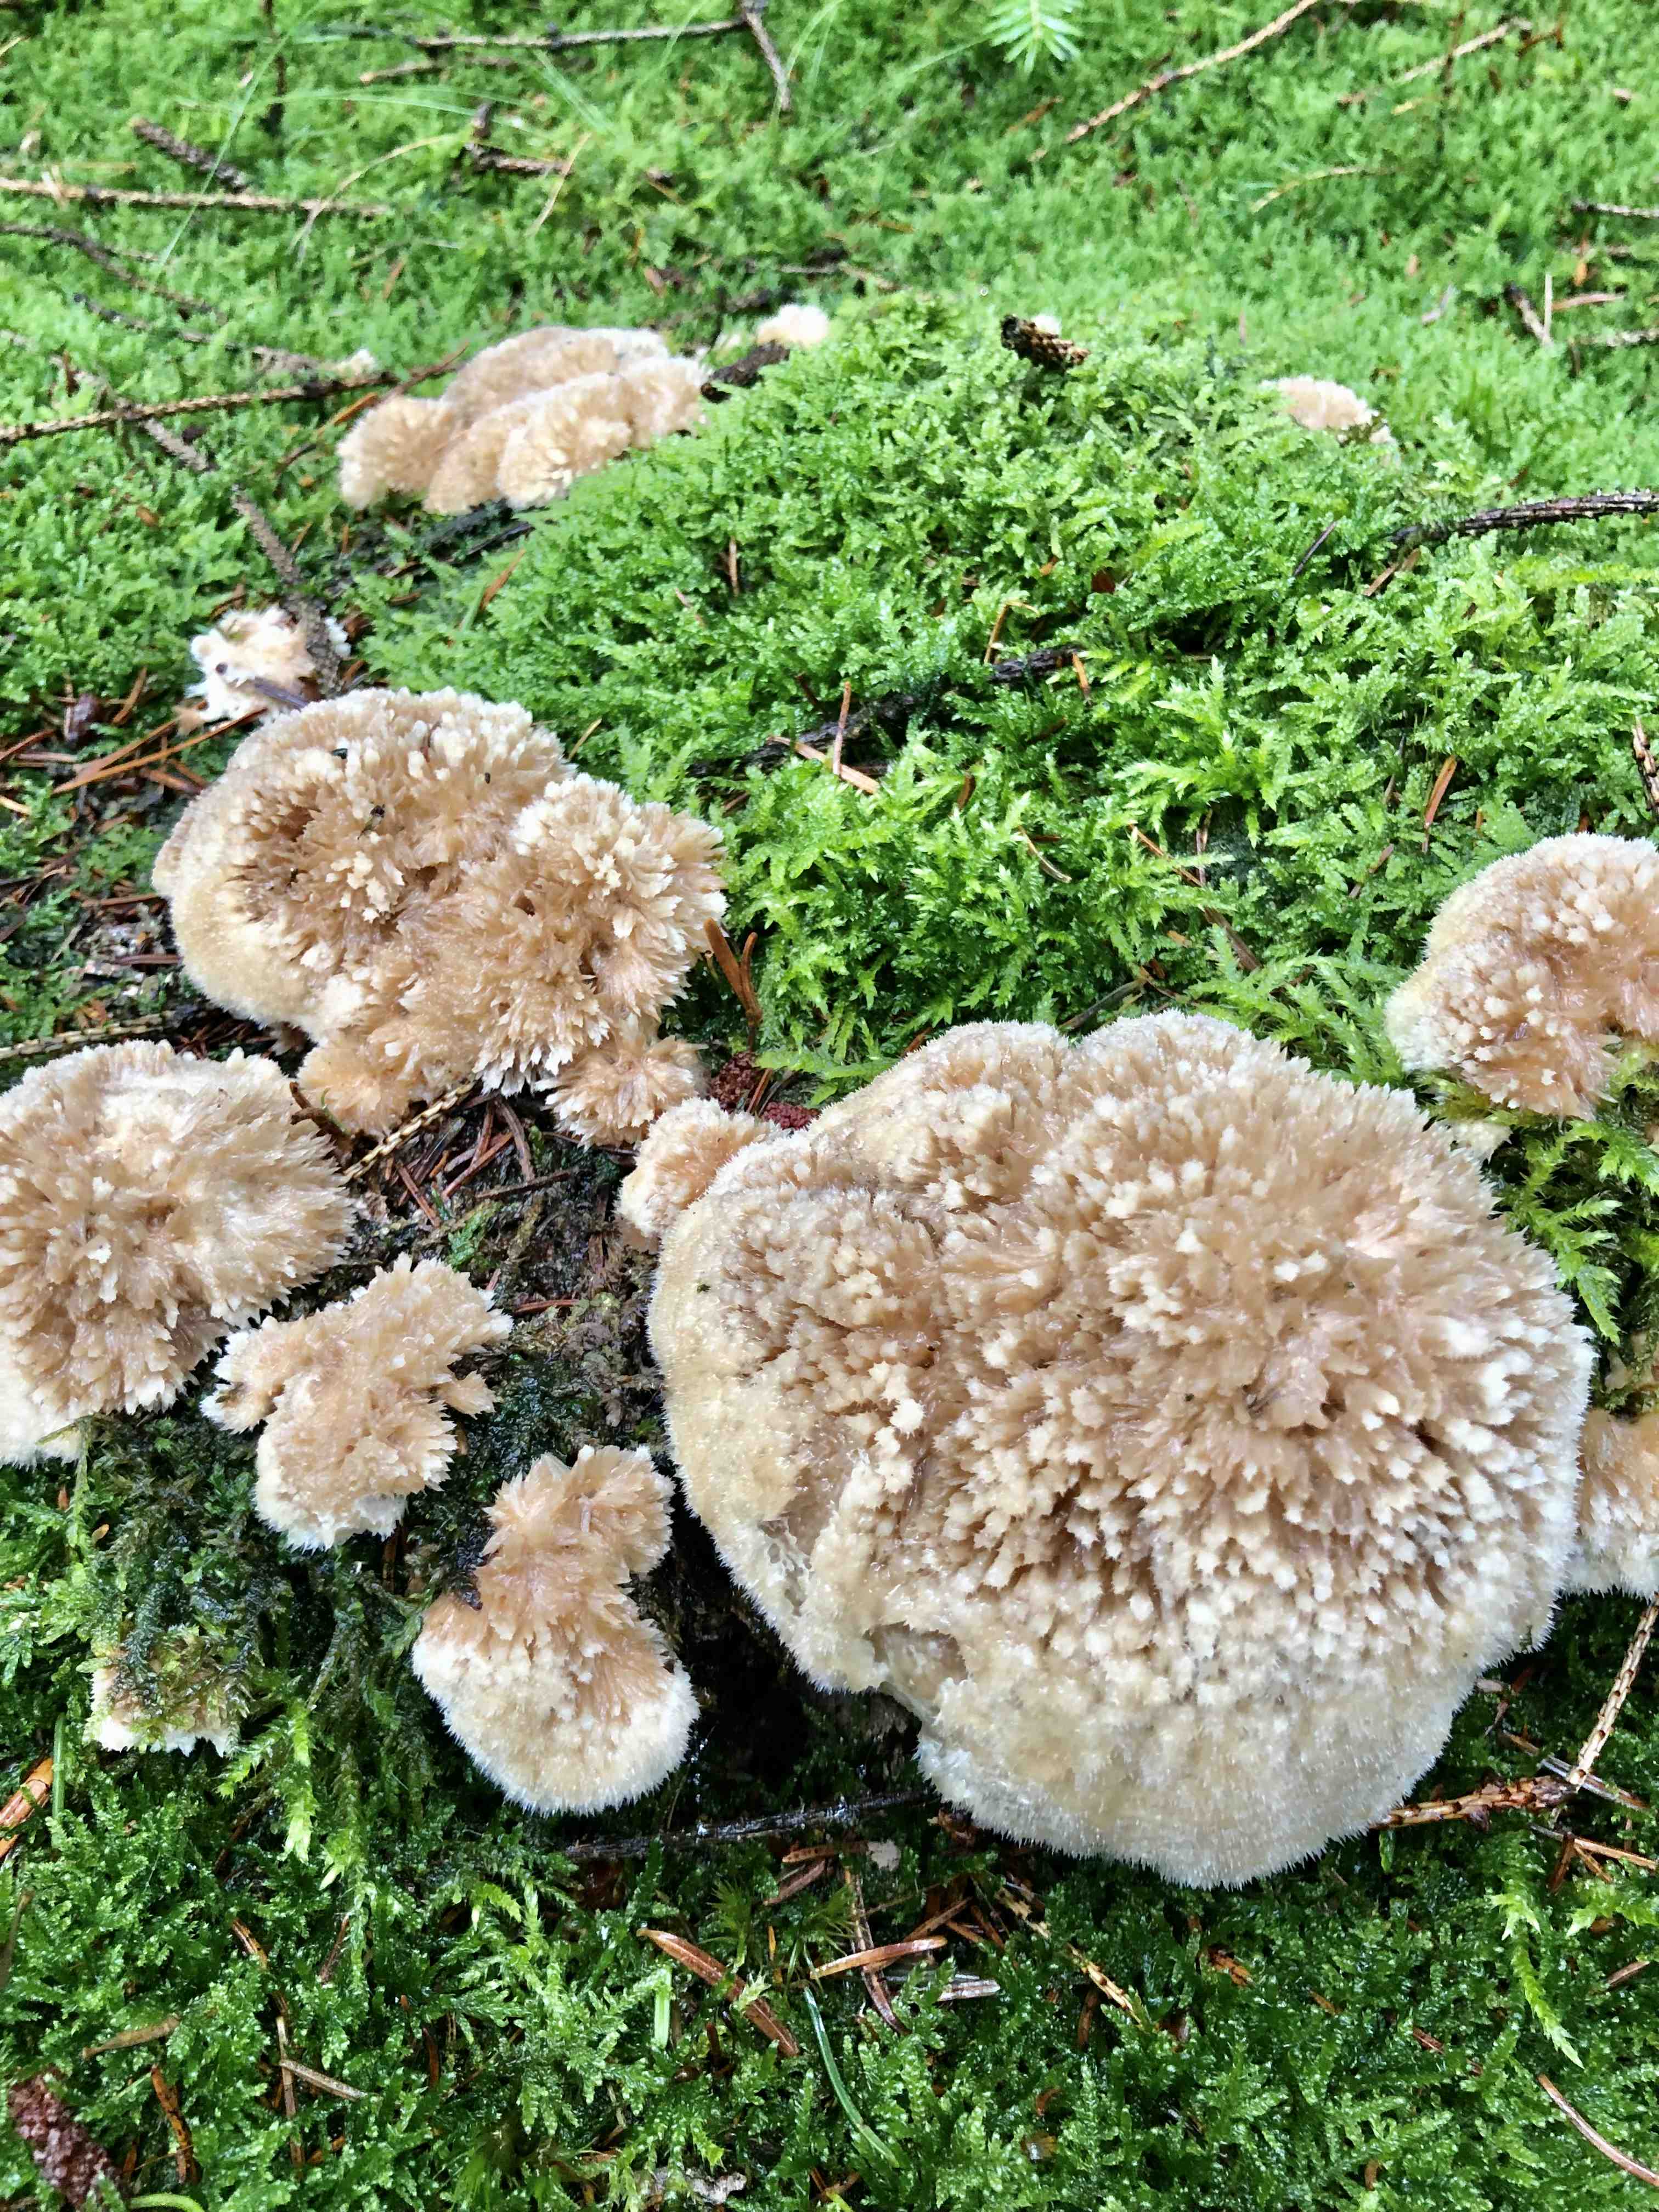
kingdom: Fungi
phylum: Basidiomycota
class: Agaricomycetes
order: Polyporales
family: Dacryobolaceae
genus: Postia
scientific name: Postia ptychogaster
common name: støvende kødporesvamp
